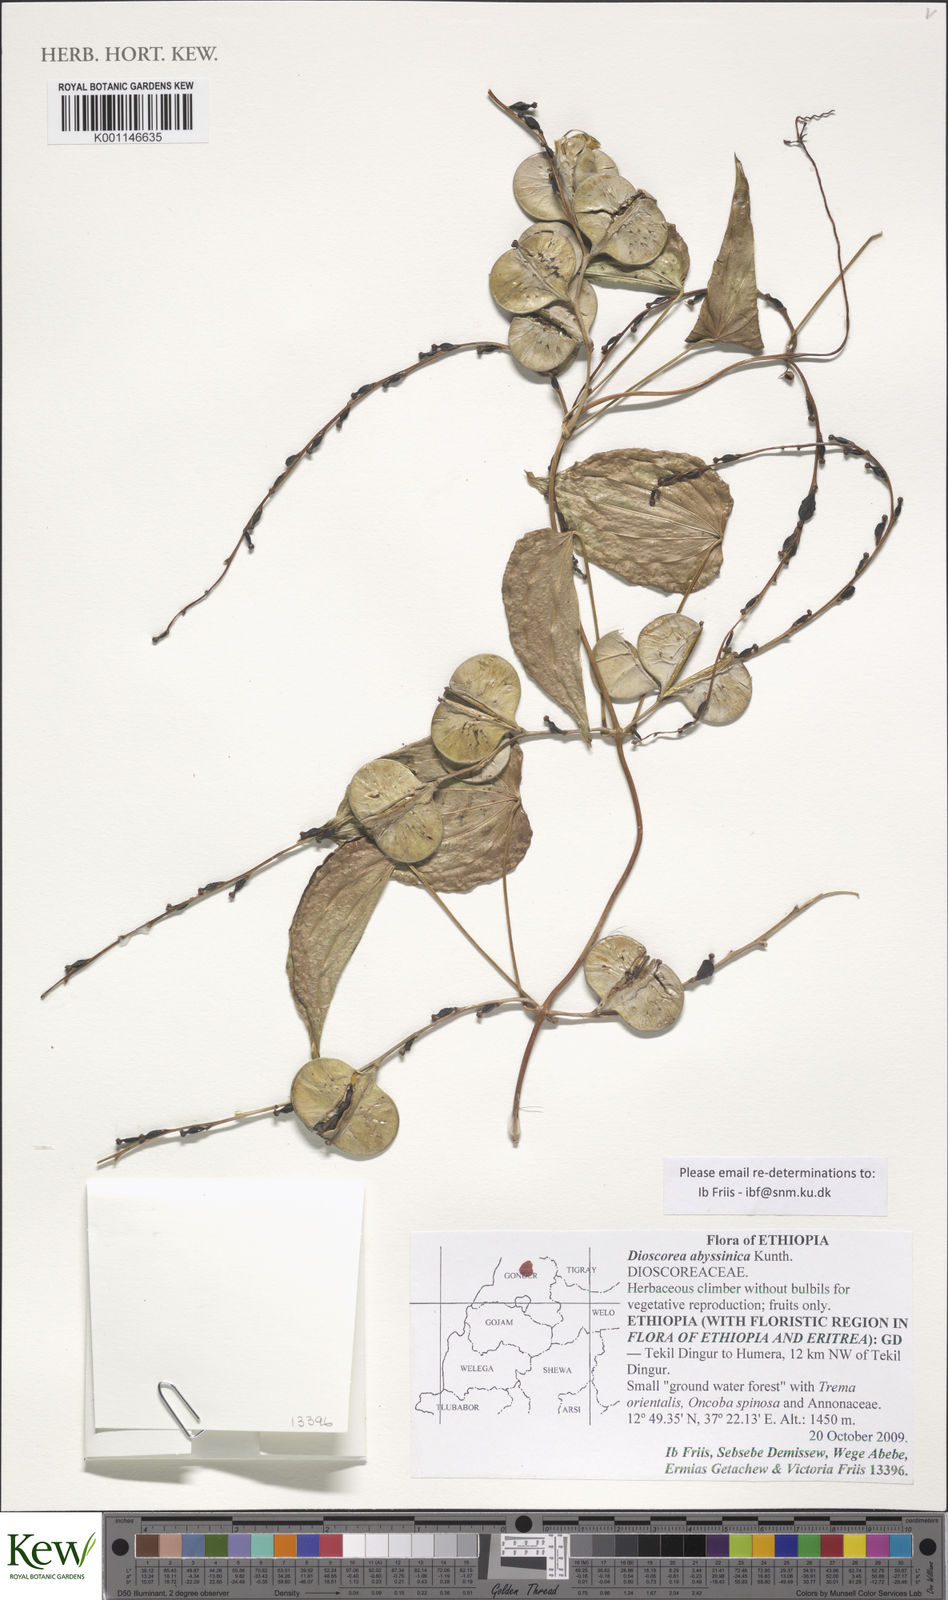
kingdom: Plantae
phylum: Tracheophyta
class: Liliopsida
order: Dioscoreales
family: Dioscoreaceae
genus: Dioscorea
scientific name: Dioscorea abyssinica
